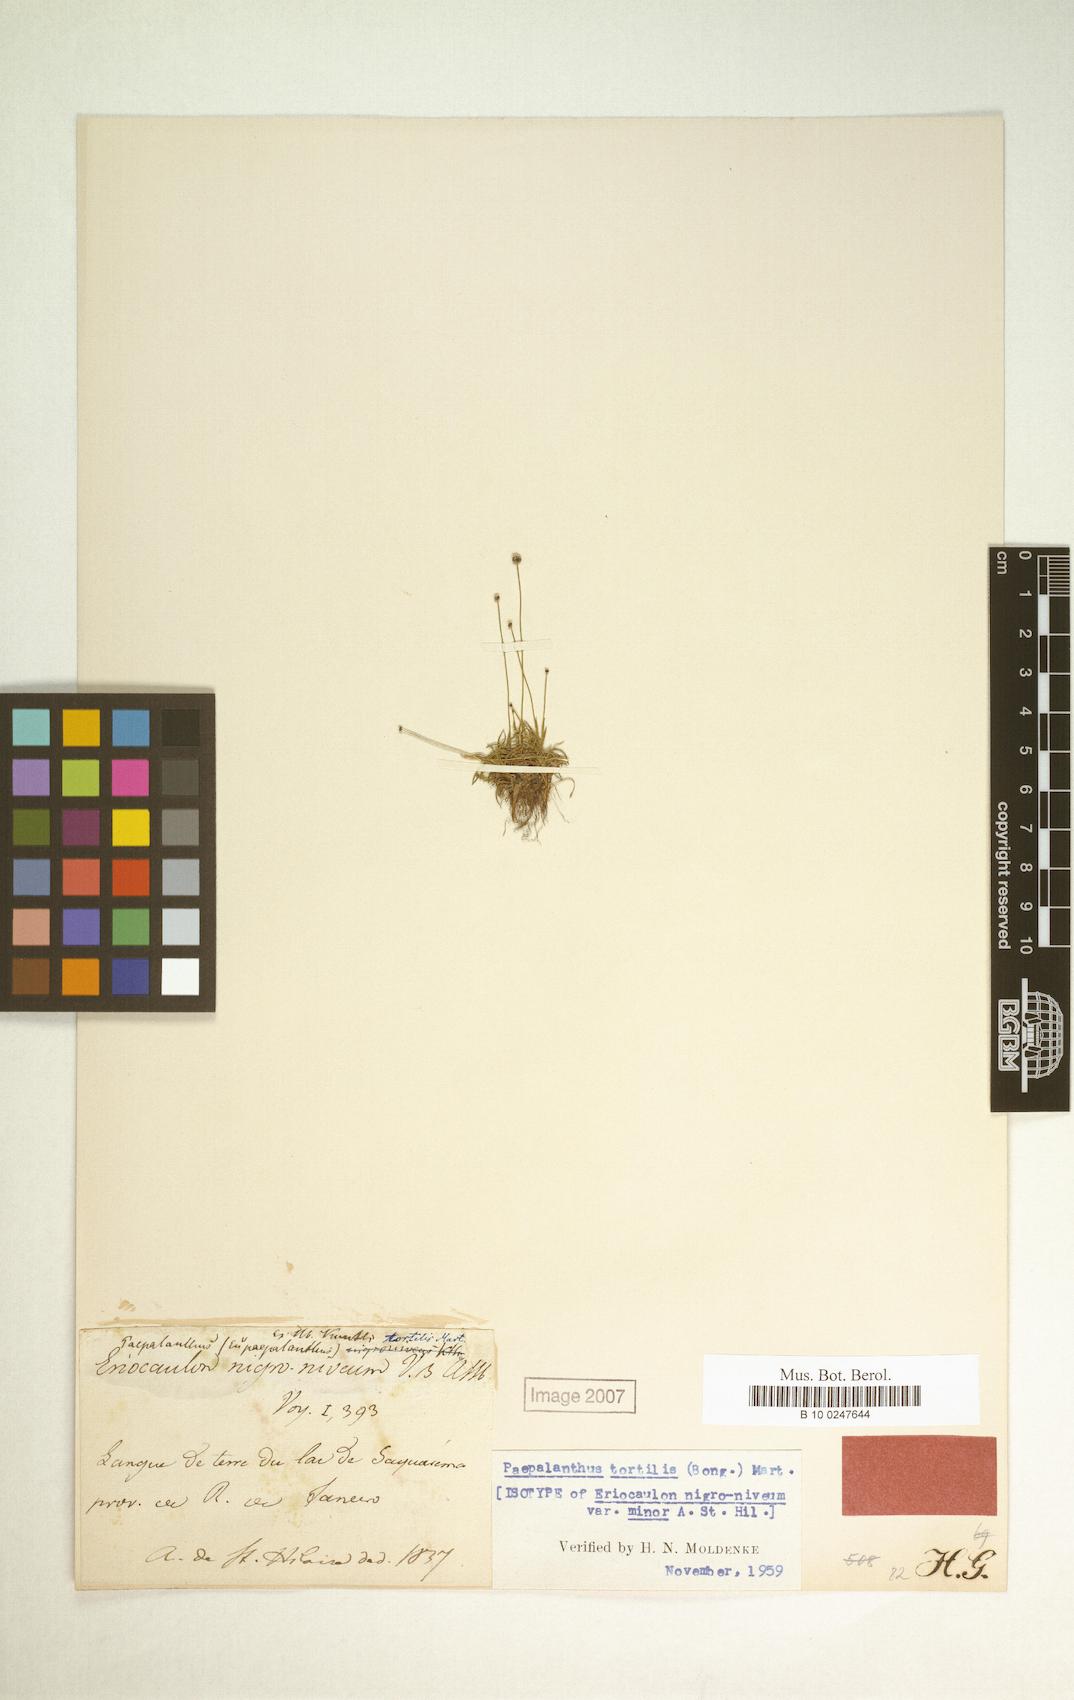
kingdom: Plantae
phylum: Tracheophyta
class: Liliopsida
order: Poales
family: Eriocaulaceae
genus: Paepalanthus
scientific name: Paepalanthus tortilis
